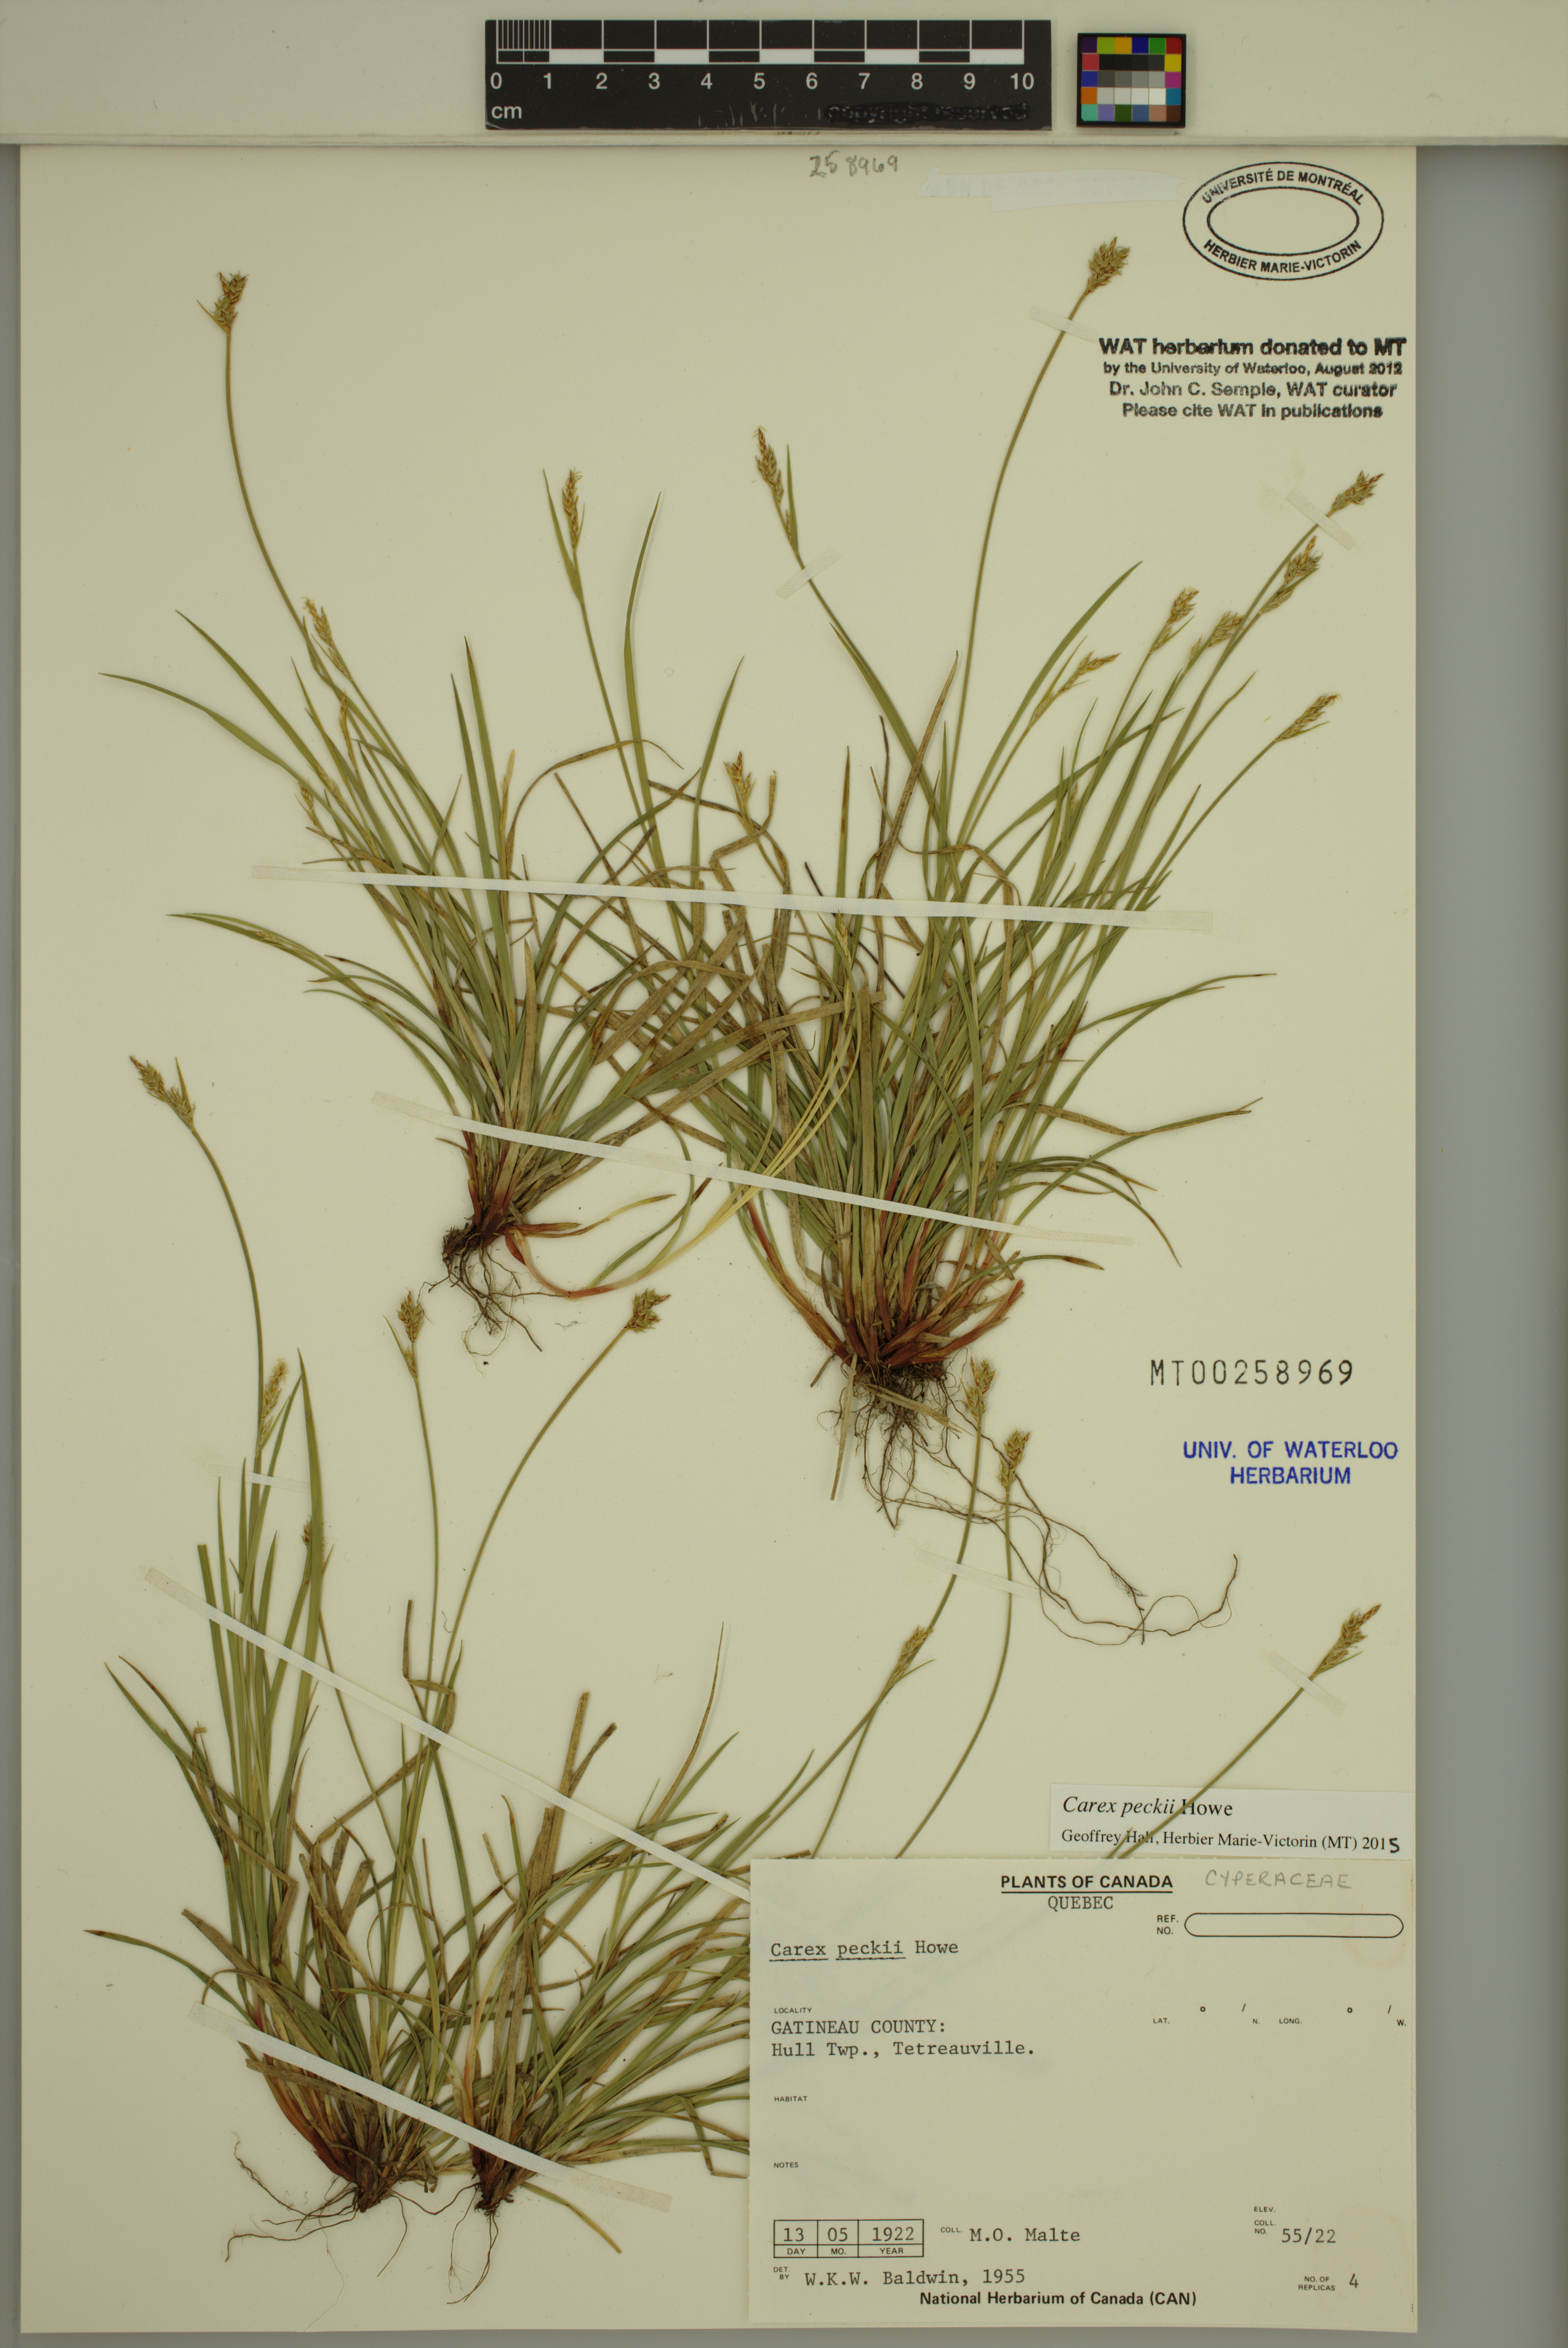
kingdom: Plantae
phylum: Tracheophyta
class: Liliopsida
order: Poales
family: Cyperaceae
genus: Carex
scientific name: Carex peckii
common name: Peck's oak sedge
